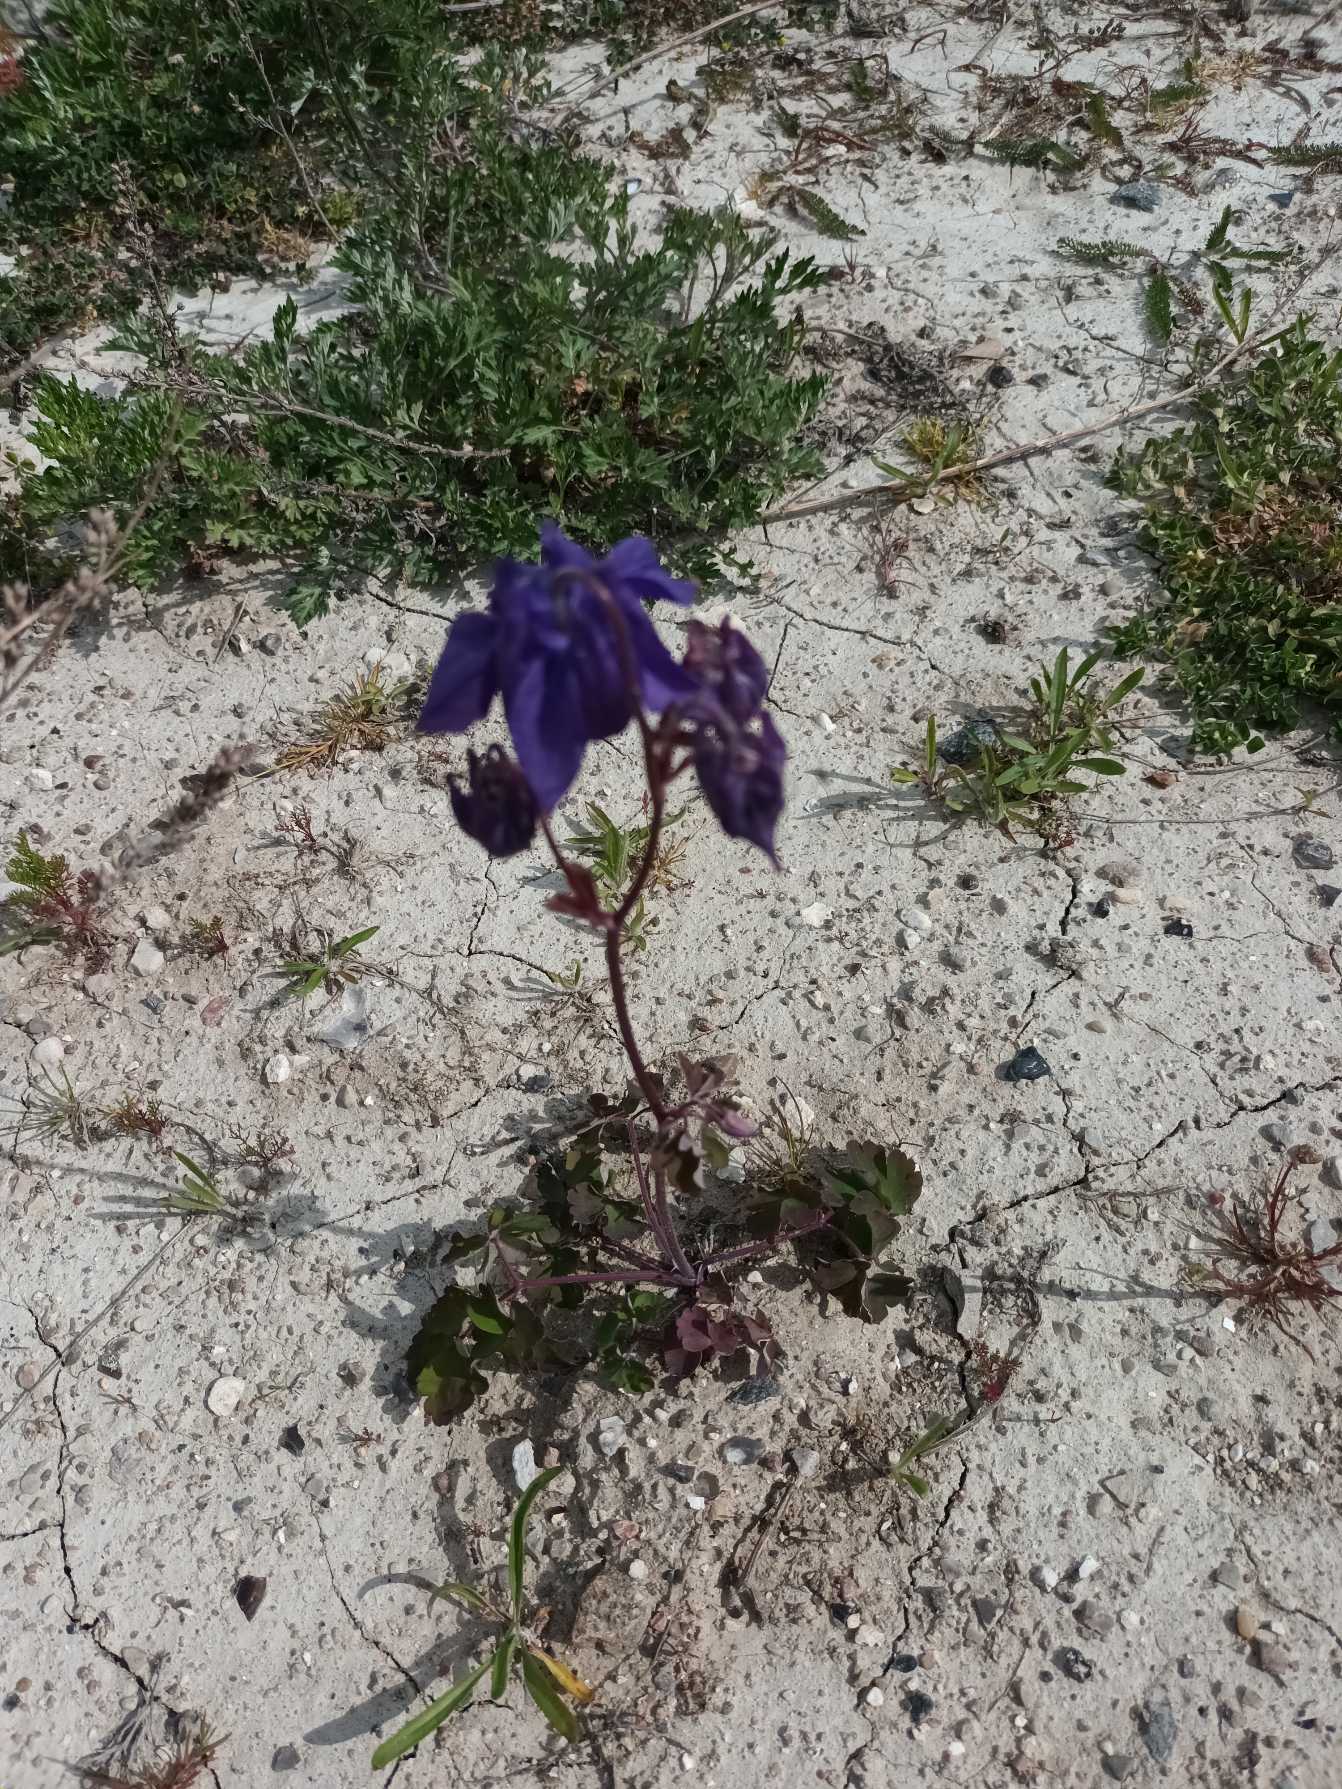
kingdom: Plantae
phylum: Tracheophyta
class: Magnoliopsida
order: Ranunculales
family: Ranunculaceae
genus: Aquilegia
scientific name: Aquilegia vulgaris
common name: Akeleje
